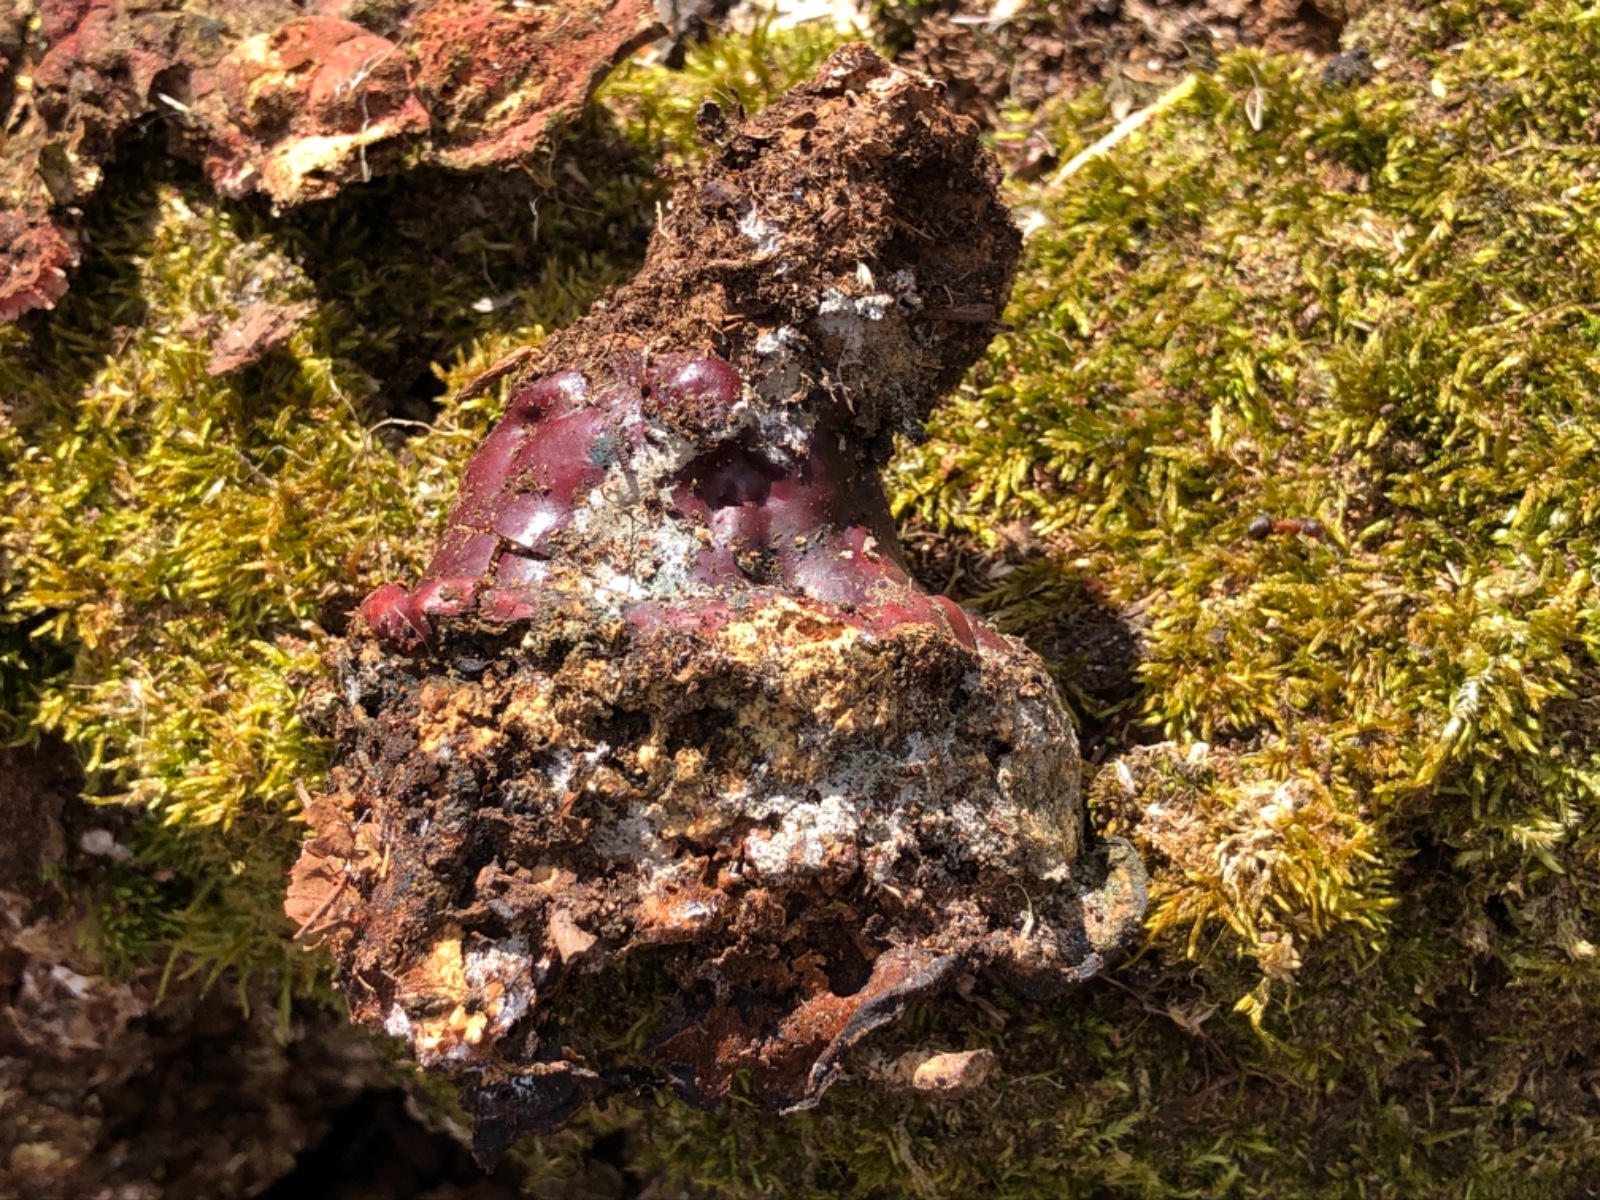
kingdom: Fungi
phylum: Basidiomycota
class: Agaricomycetes
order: Polyporales
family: Polyporaceae
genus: Ganoderma
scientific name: Ganoderma lucidum
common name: skinnende lakporesvamp
